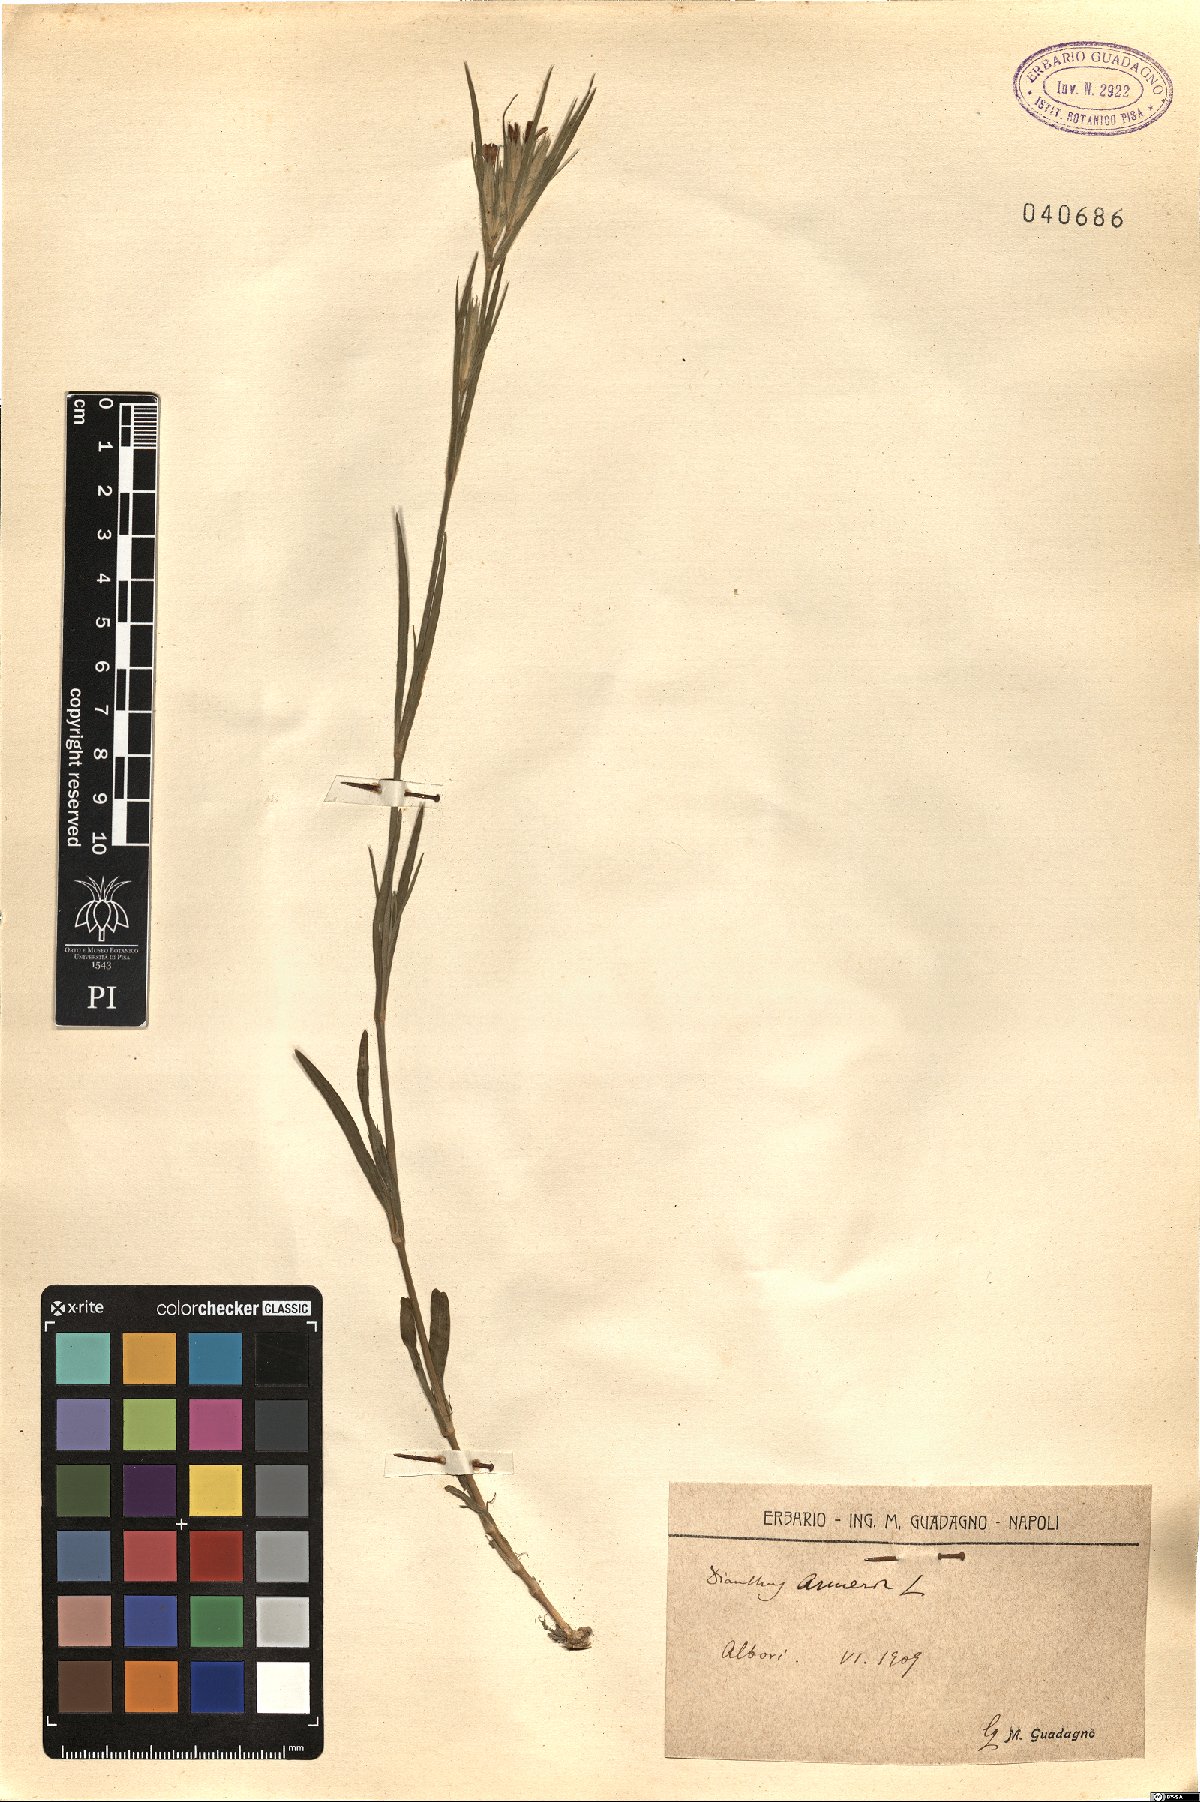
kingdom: Plantae
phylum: Tracheophyta
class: Magnoliopsida
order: Caryophyllales
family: Caryophyllaceae
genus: Dianthus
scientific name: Dianthus armeria
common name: Deptford pink
